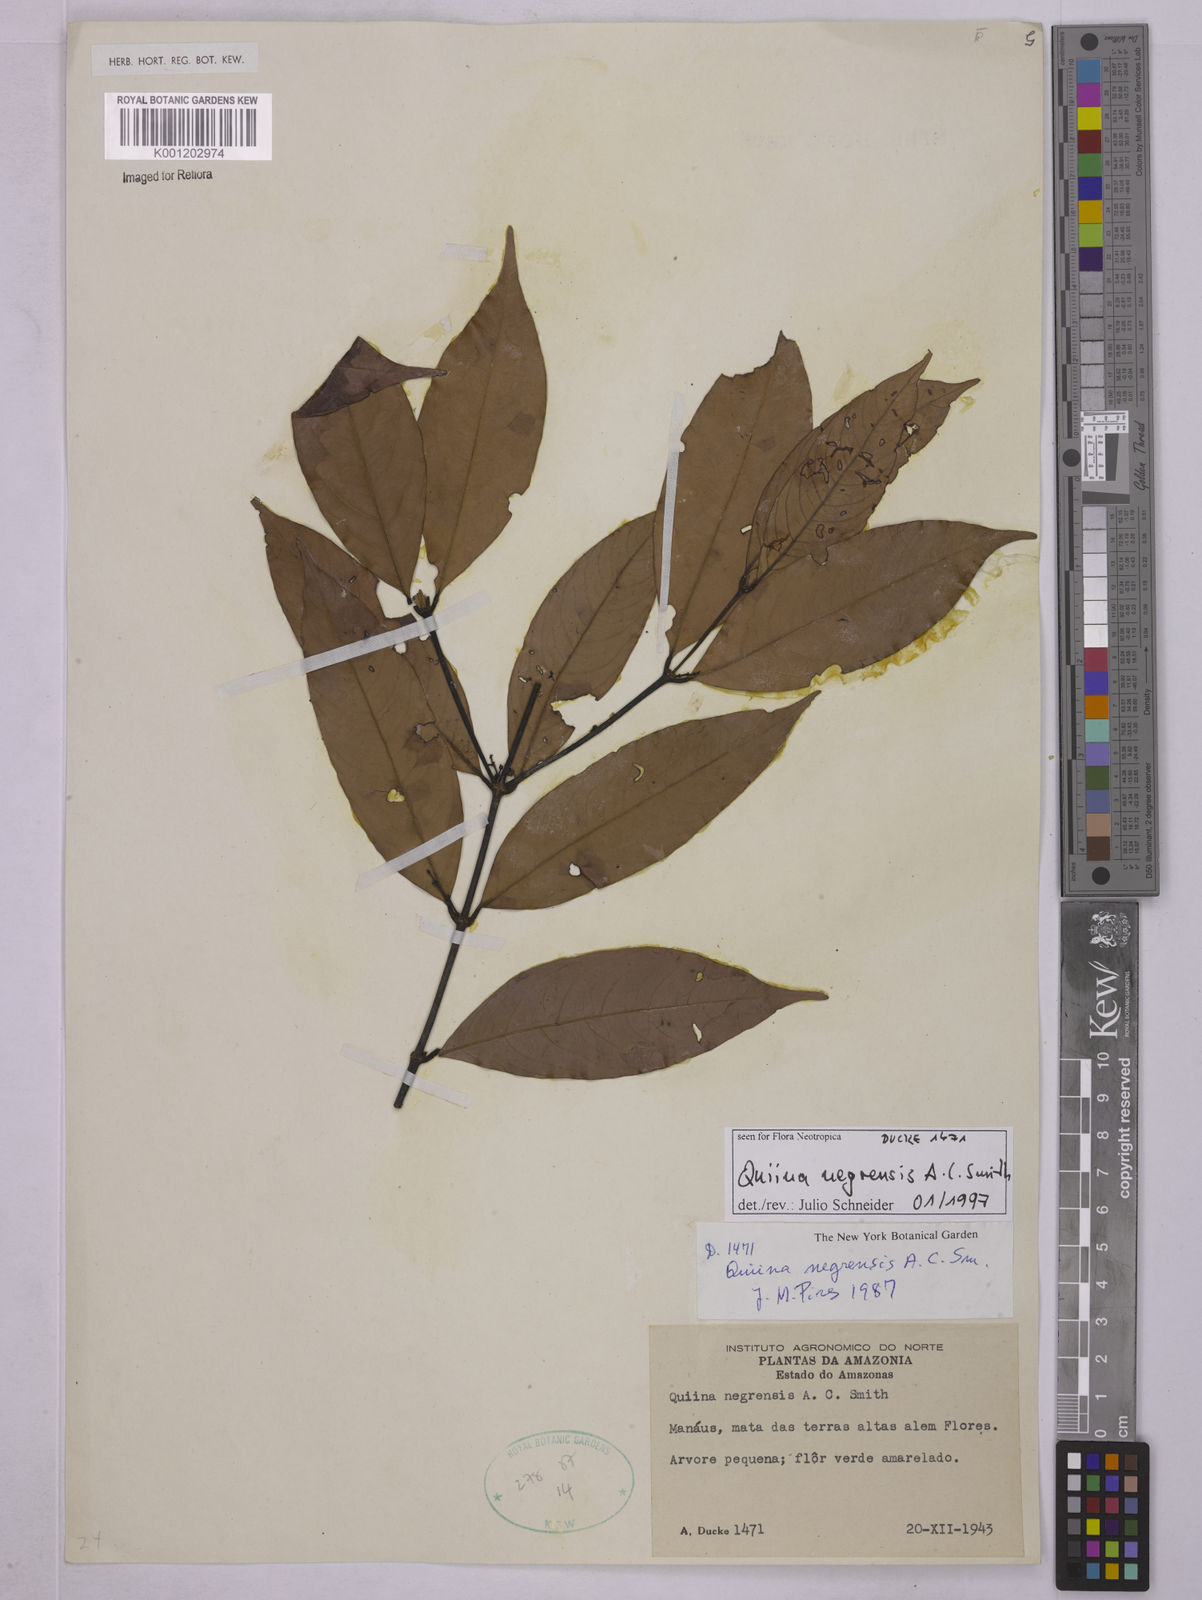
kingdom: Plantae
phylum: Tracheophyta
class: Magnoliopsida
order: Malpighiales
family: Quiinaceae
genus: Quiina
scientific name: Quiina negrensis
